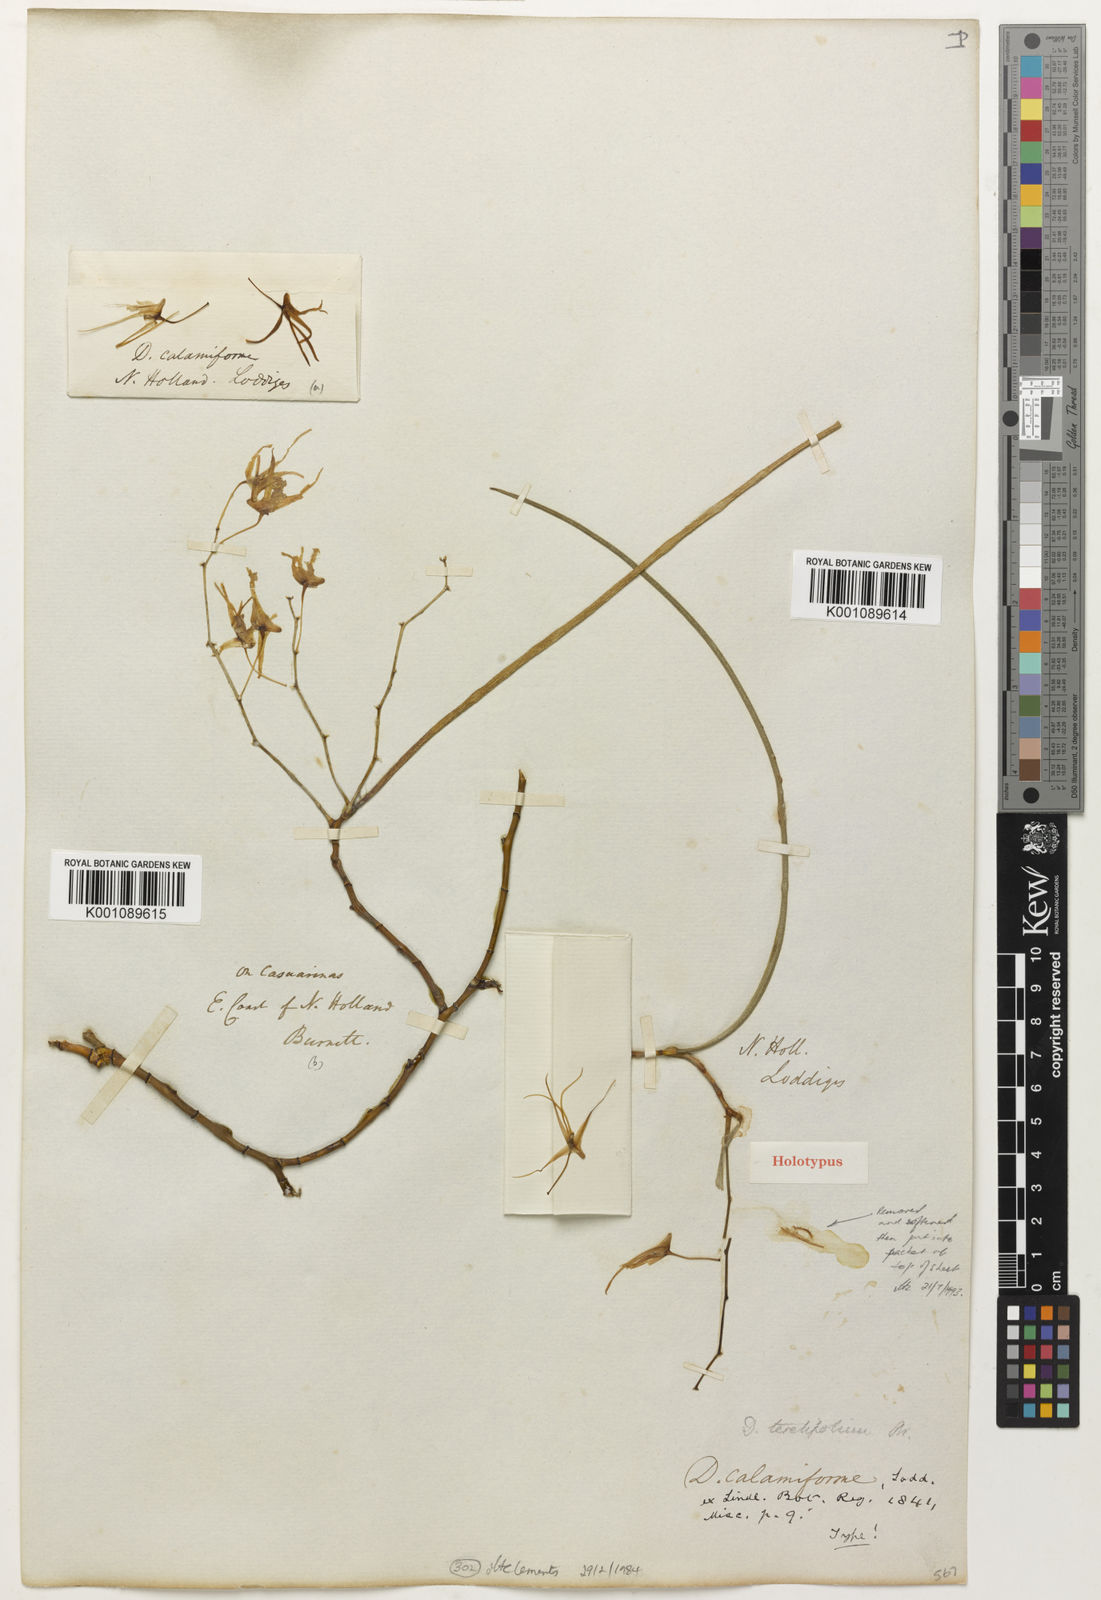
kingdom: Plantae
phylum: Tracheophyta
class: Liliopsida
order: Asparagales
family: Orchidaceae
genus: Dendrobium
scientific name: Dendrobium teretifolium
